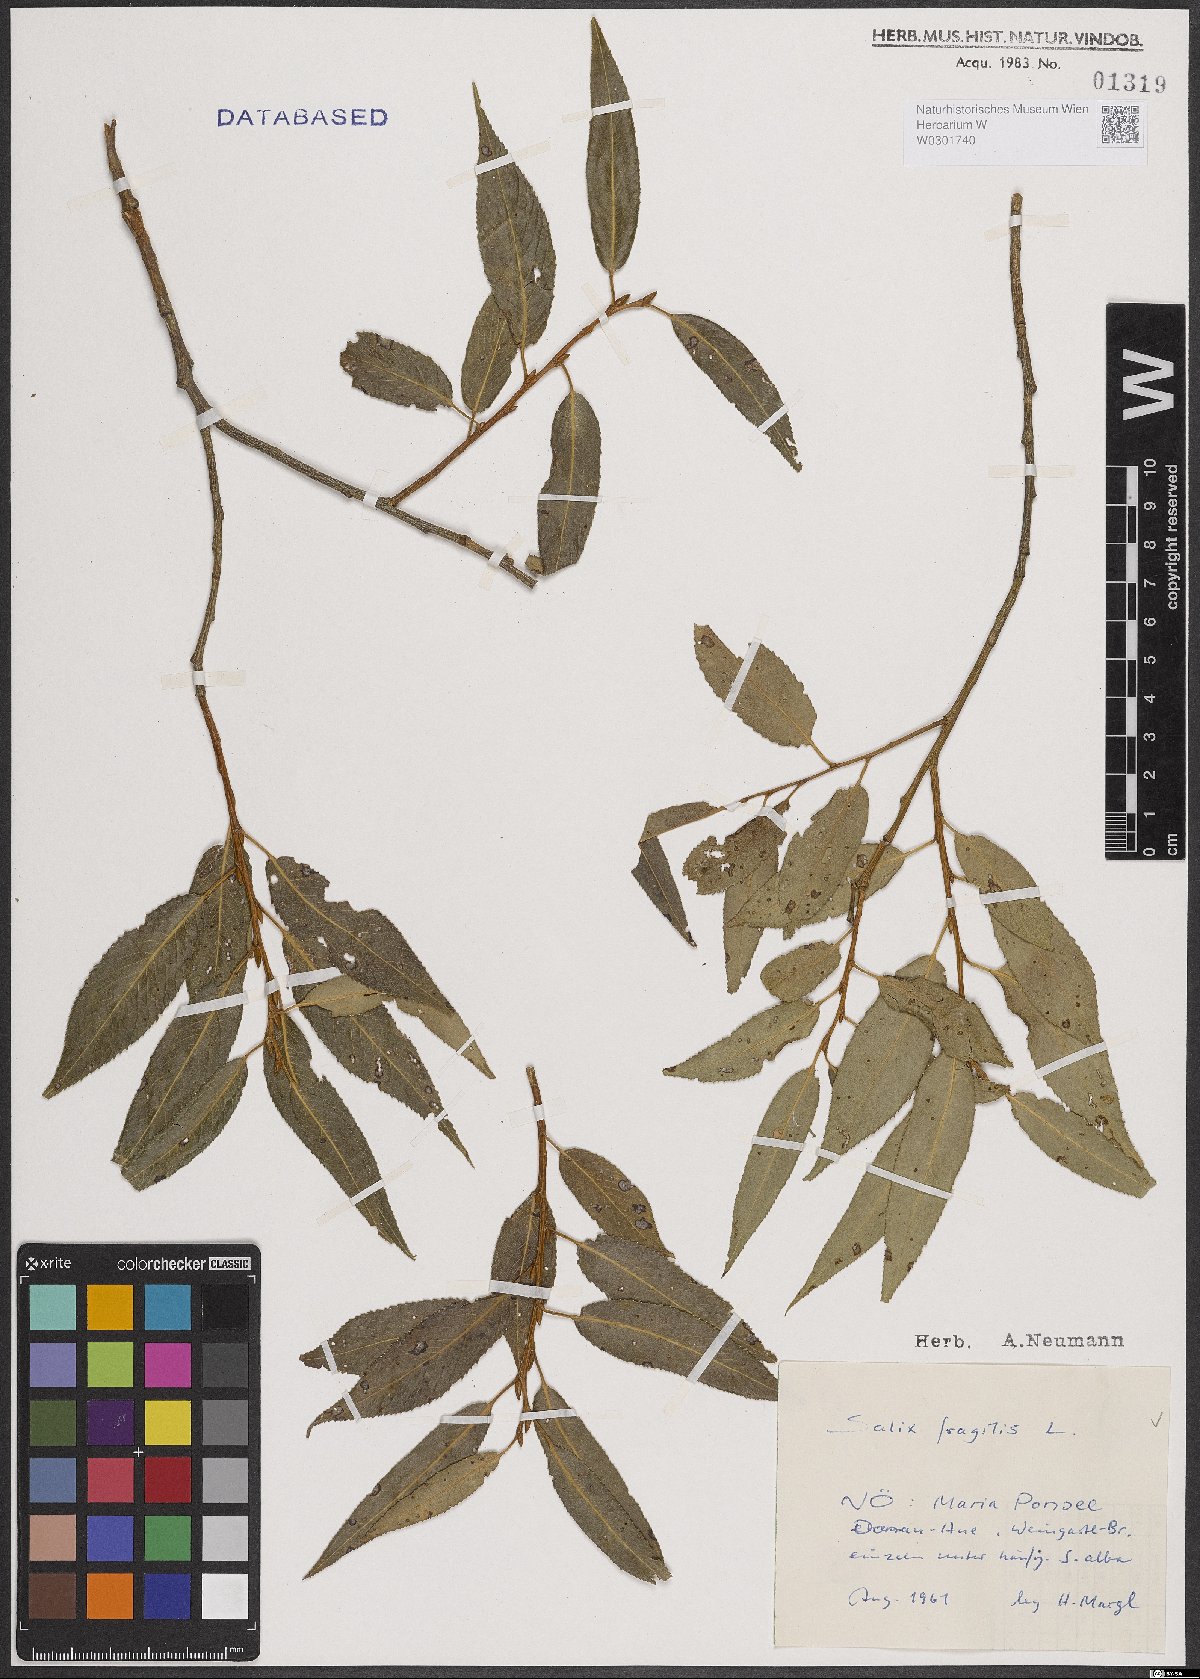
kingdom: Plantae
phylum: Tracheophyta
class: Magnoliopsida
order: Malpighiales
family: Salicaceae
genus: Salix
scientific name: Salix fragilis
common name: Crack willow
